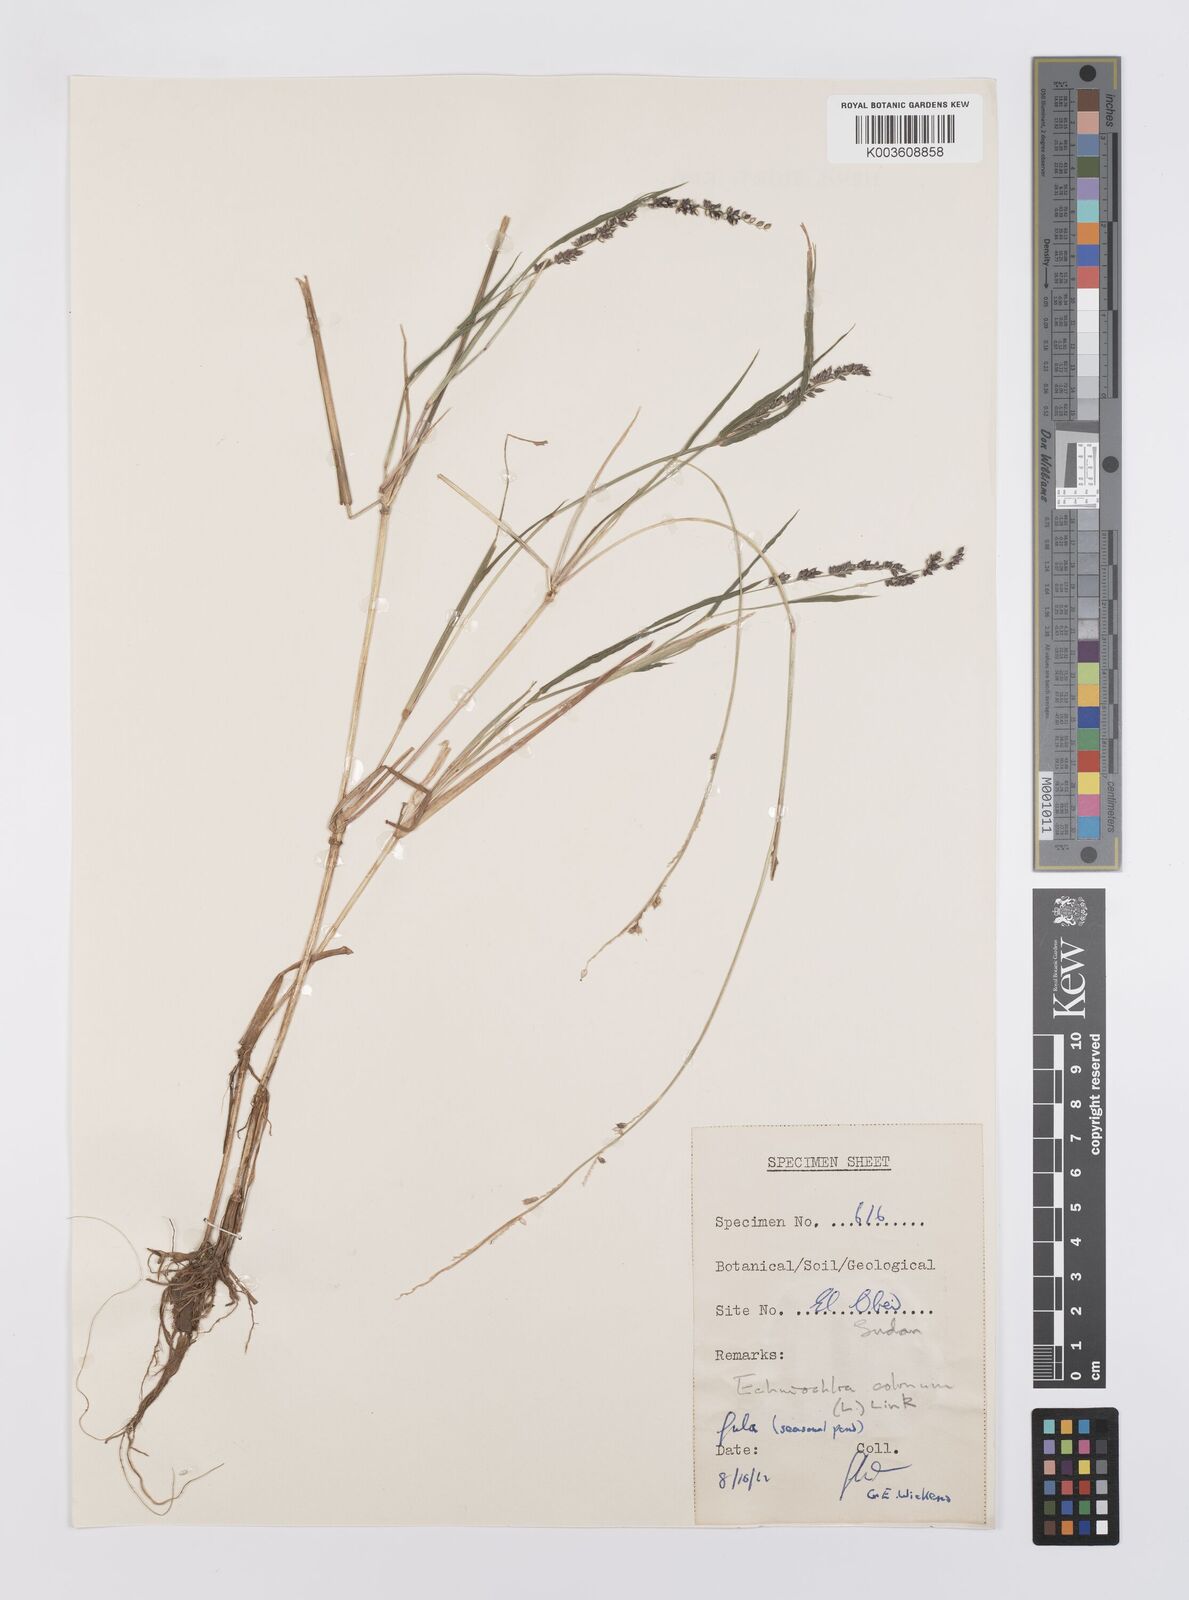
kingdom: Plantae
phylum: Tracheophyta
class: Liliopsida
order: Poales
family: Poaceae
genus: Echinochloa
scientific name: Echinochloa colonum
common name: Jungle rice
